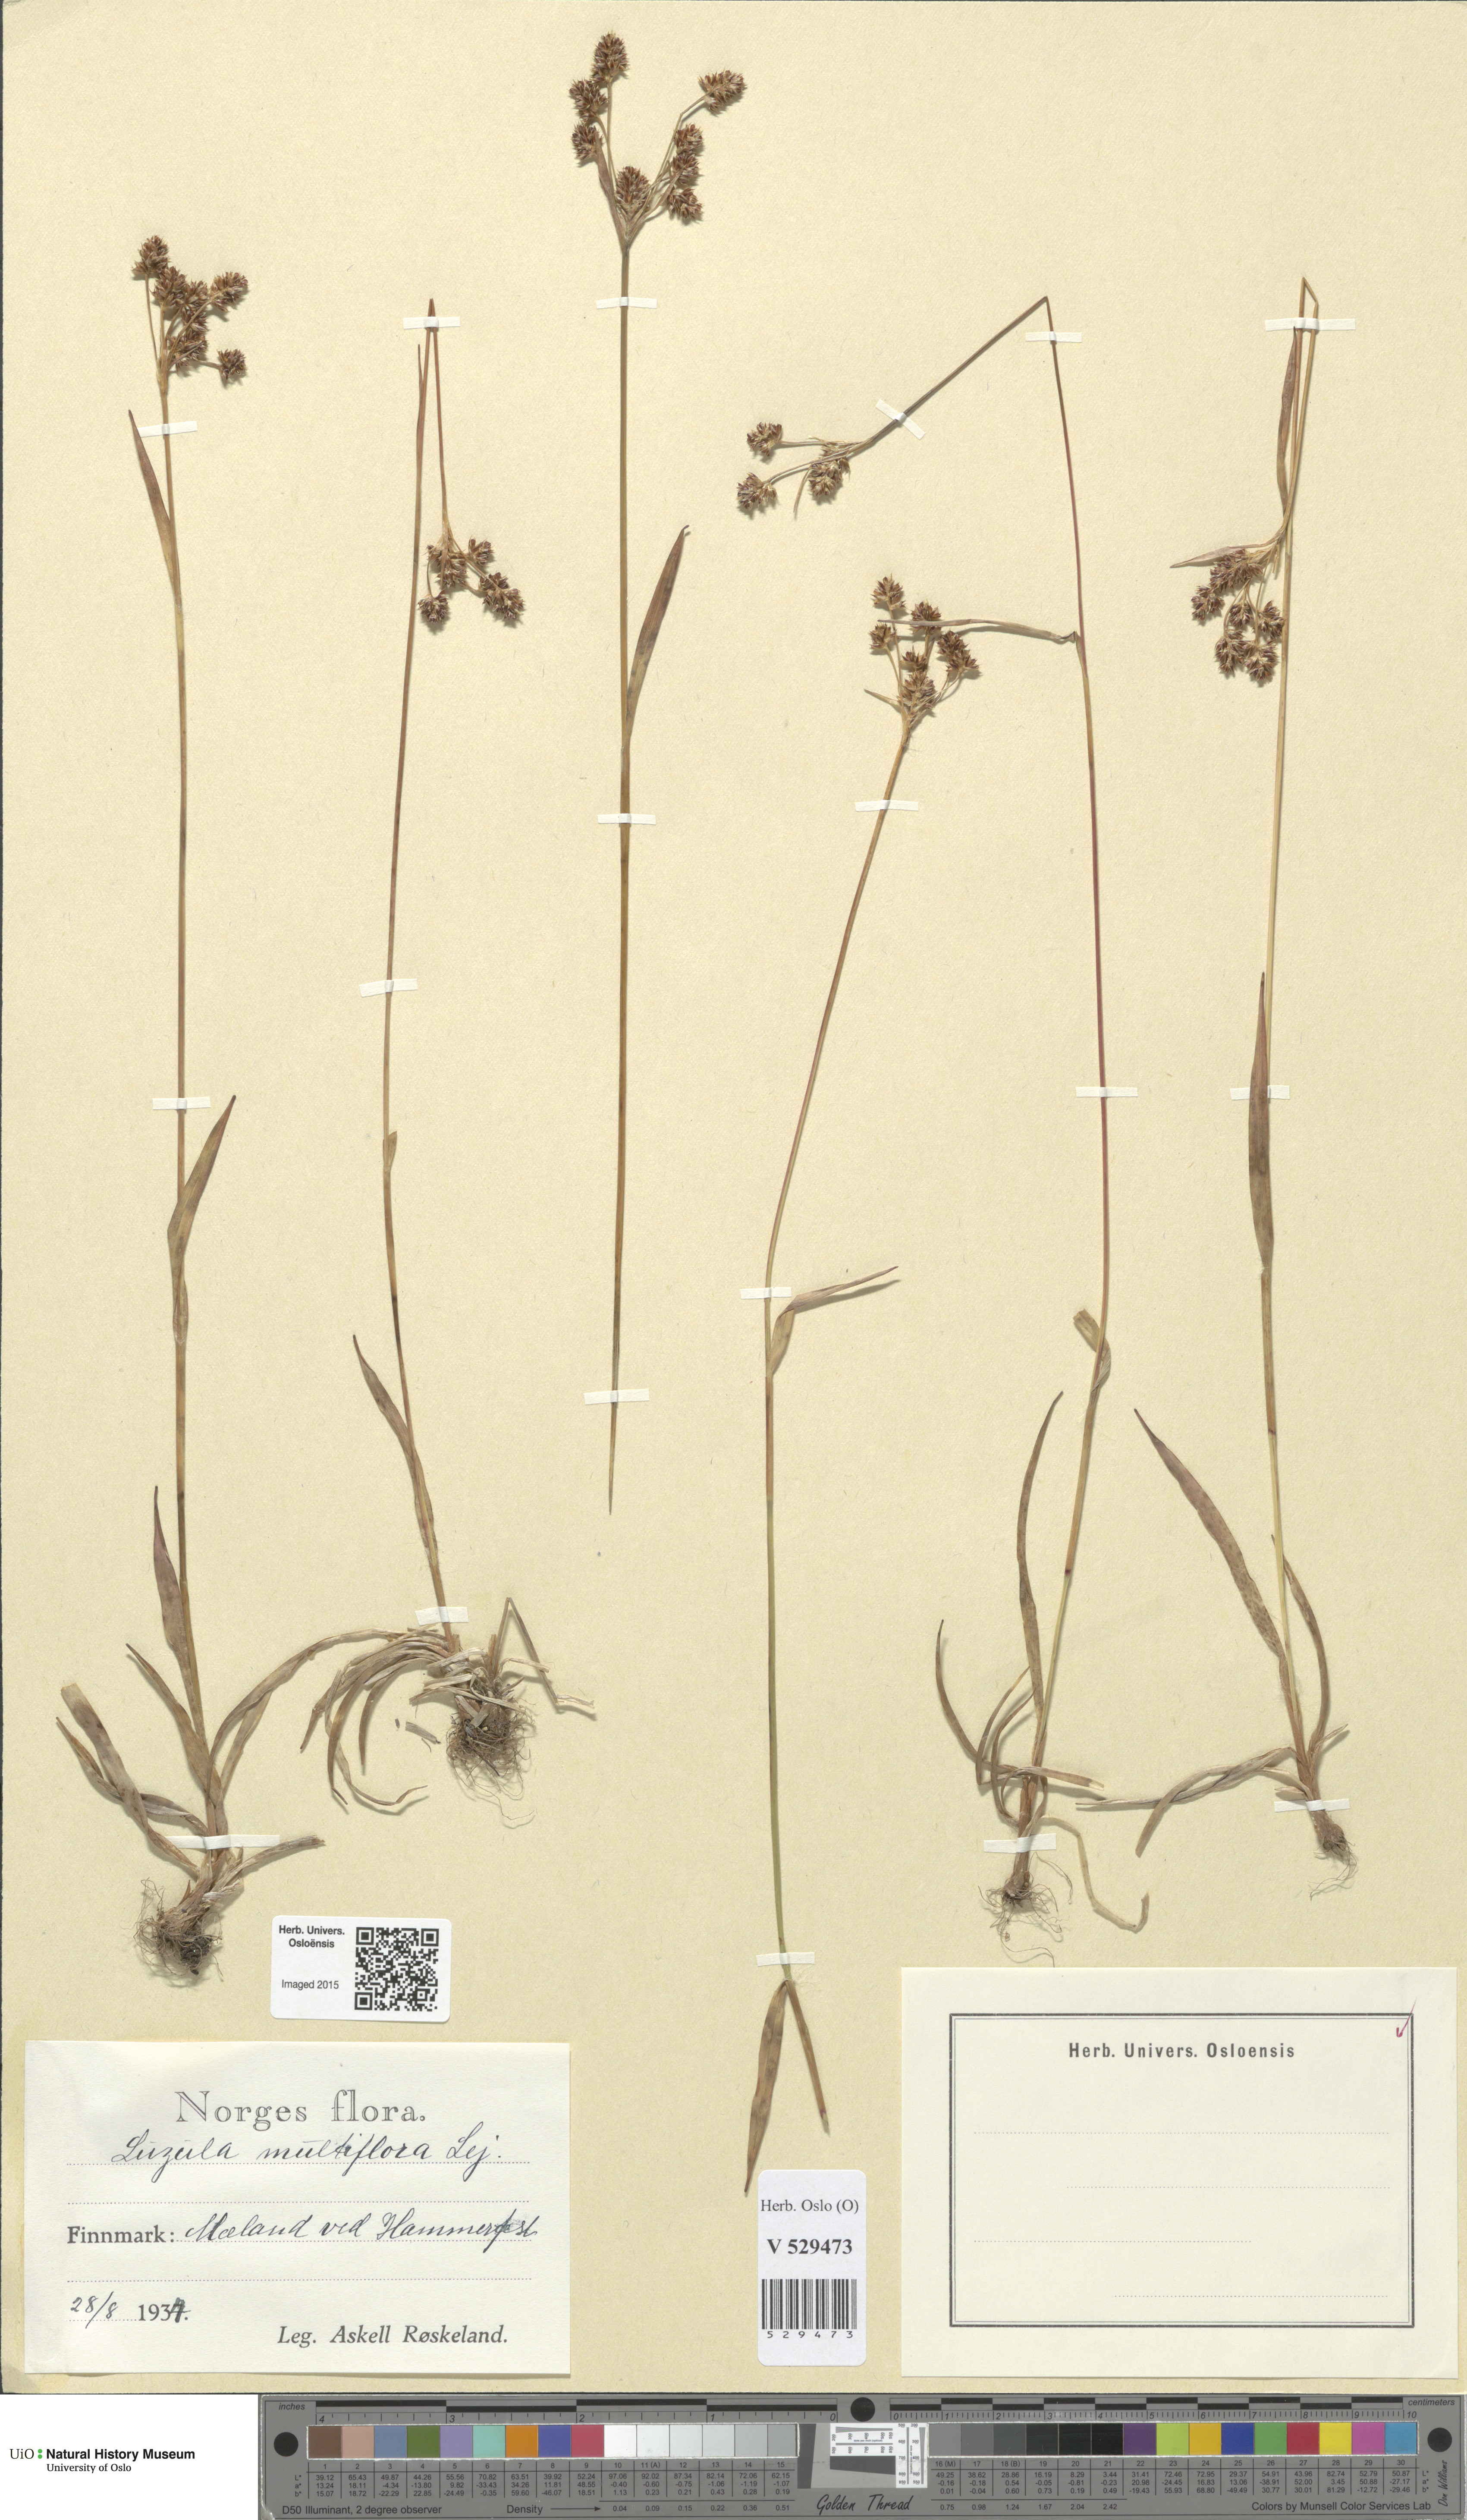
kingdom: Plantae
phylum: Tracheophyta
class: Liliopsida
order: Poales
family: Juncaceae
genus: Luzula
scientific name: Luzula multiflora
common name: Heath wood-rush
